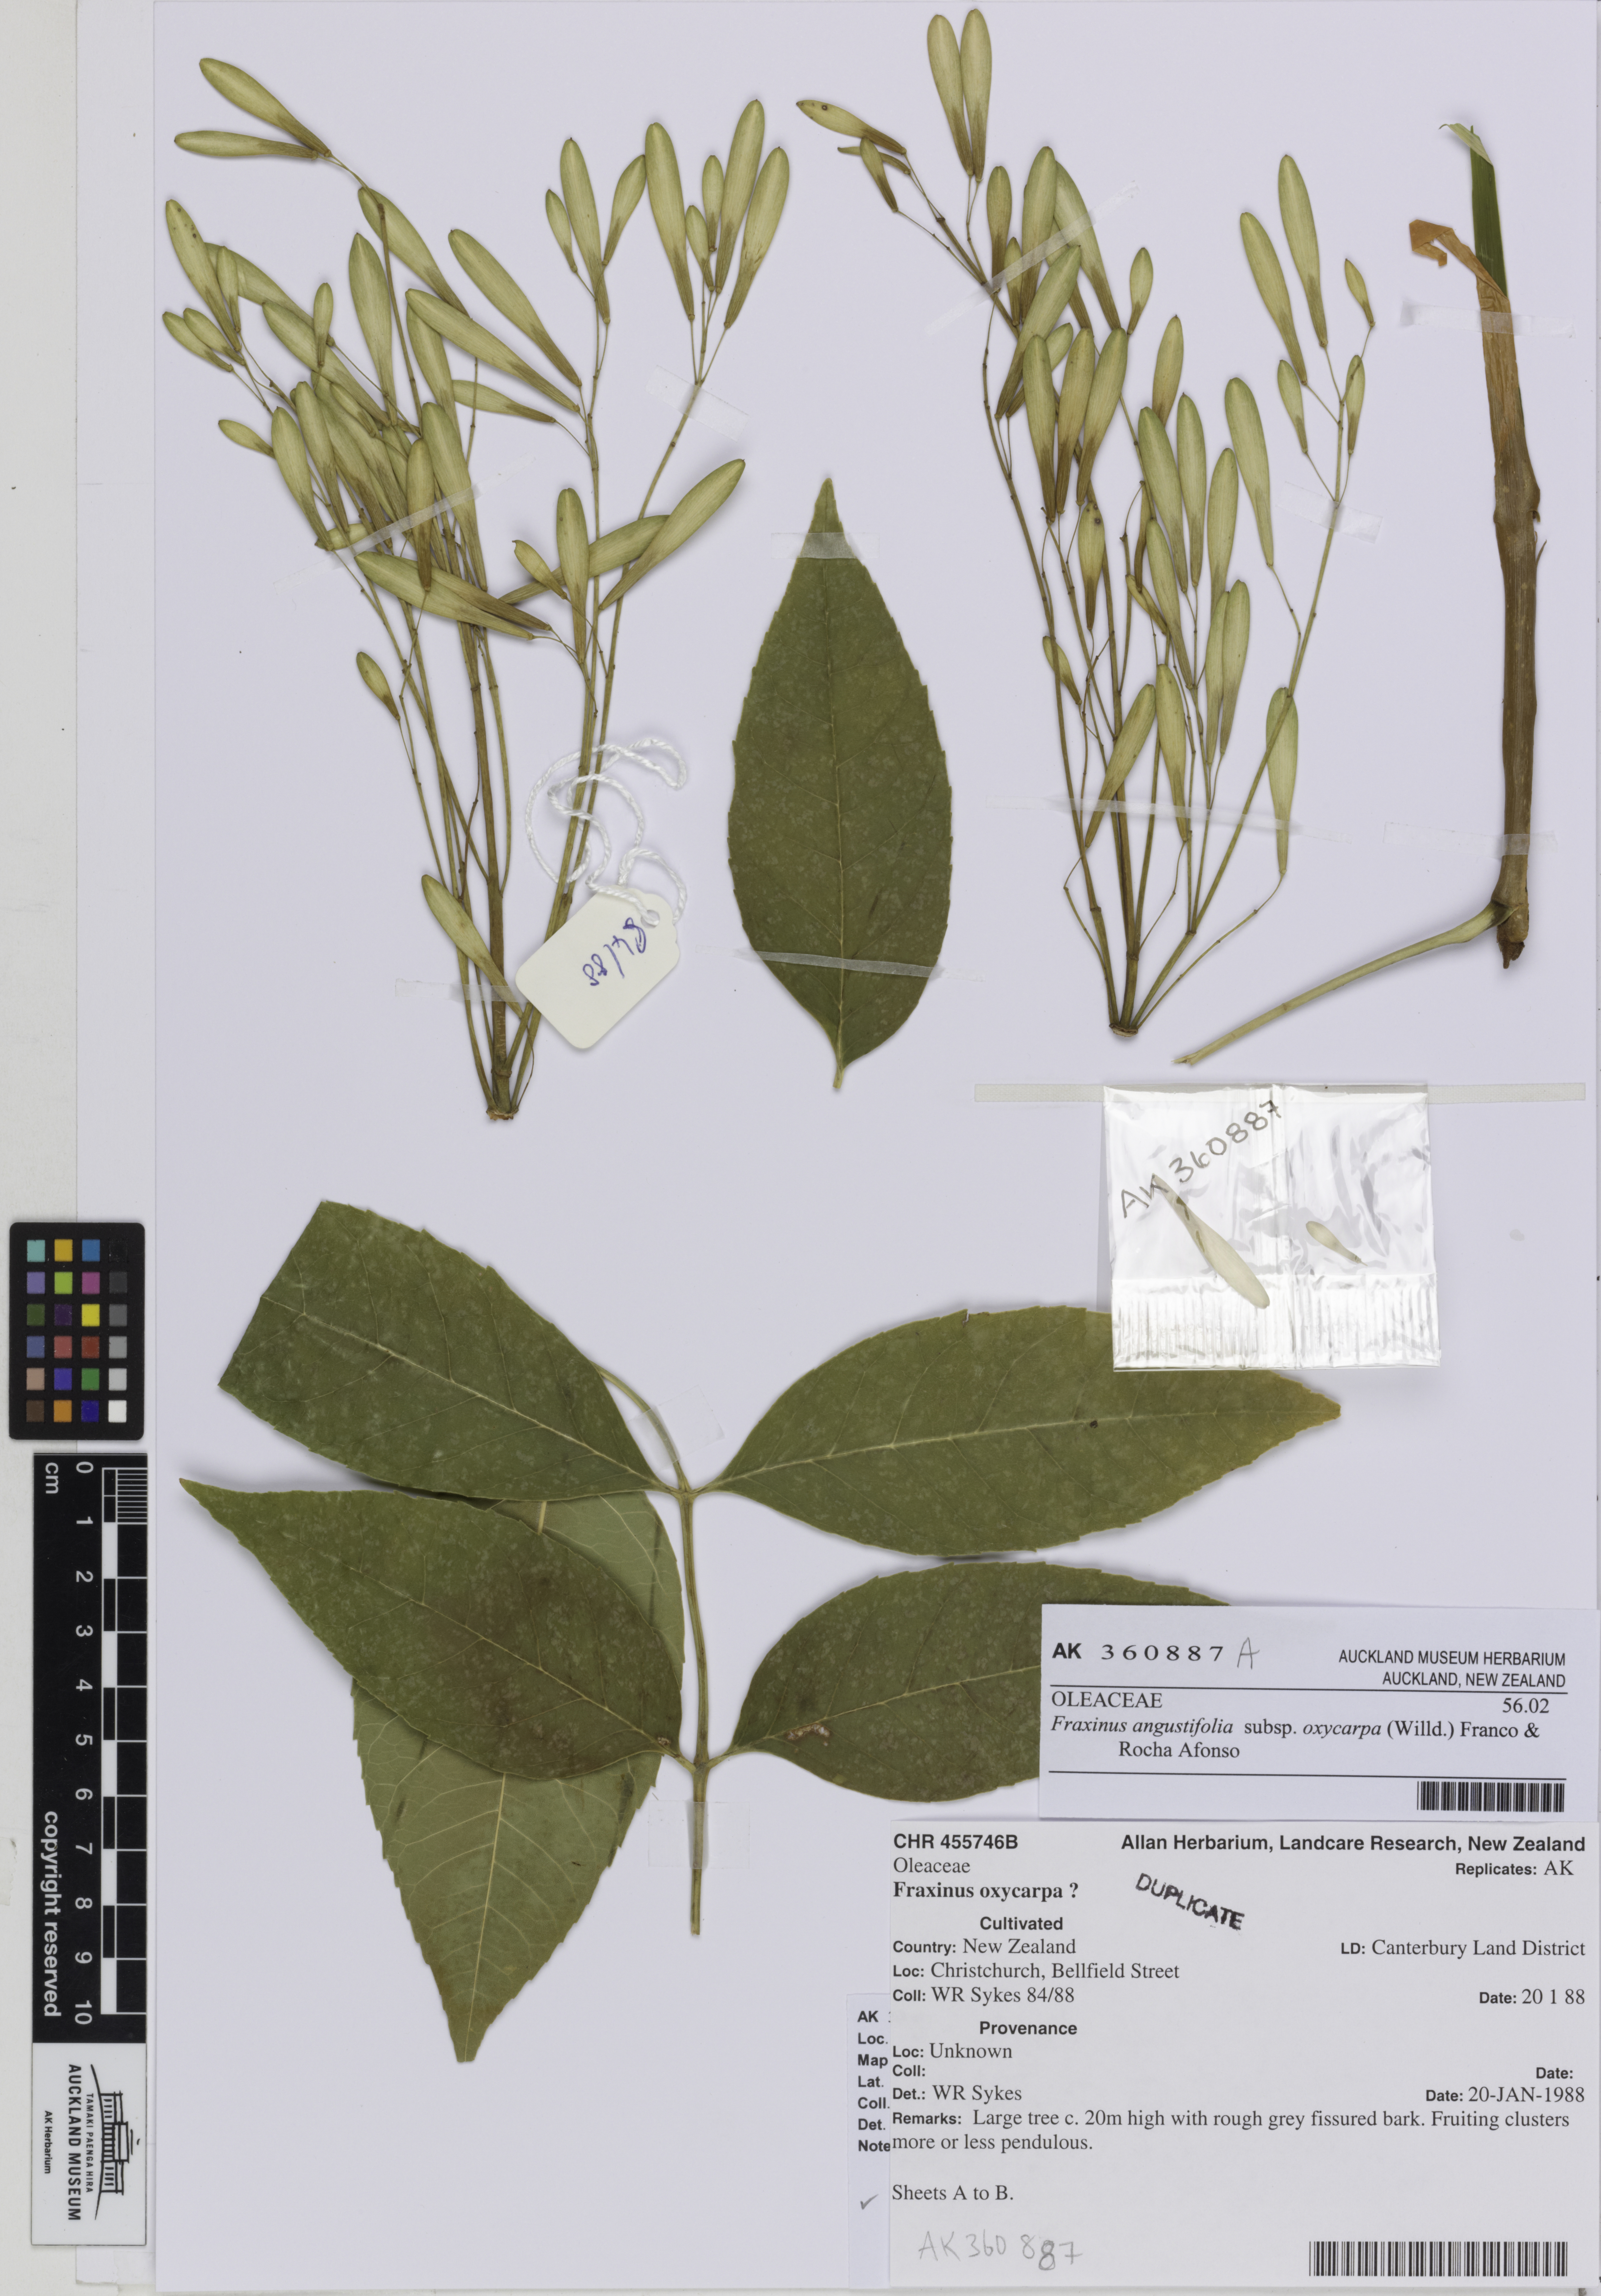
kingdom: Plantae
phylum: Tracheophyta
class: Magnoliopsida
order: Lamiales
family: Oleaceae
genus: Fraxinus
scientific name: Fraxinus angustifolia
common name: Narrow-leafed ash
